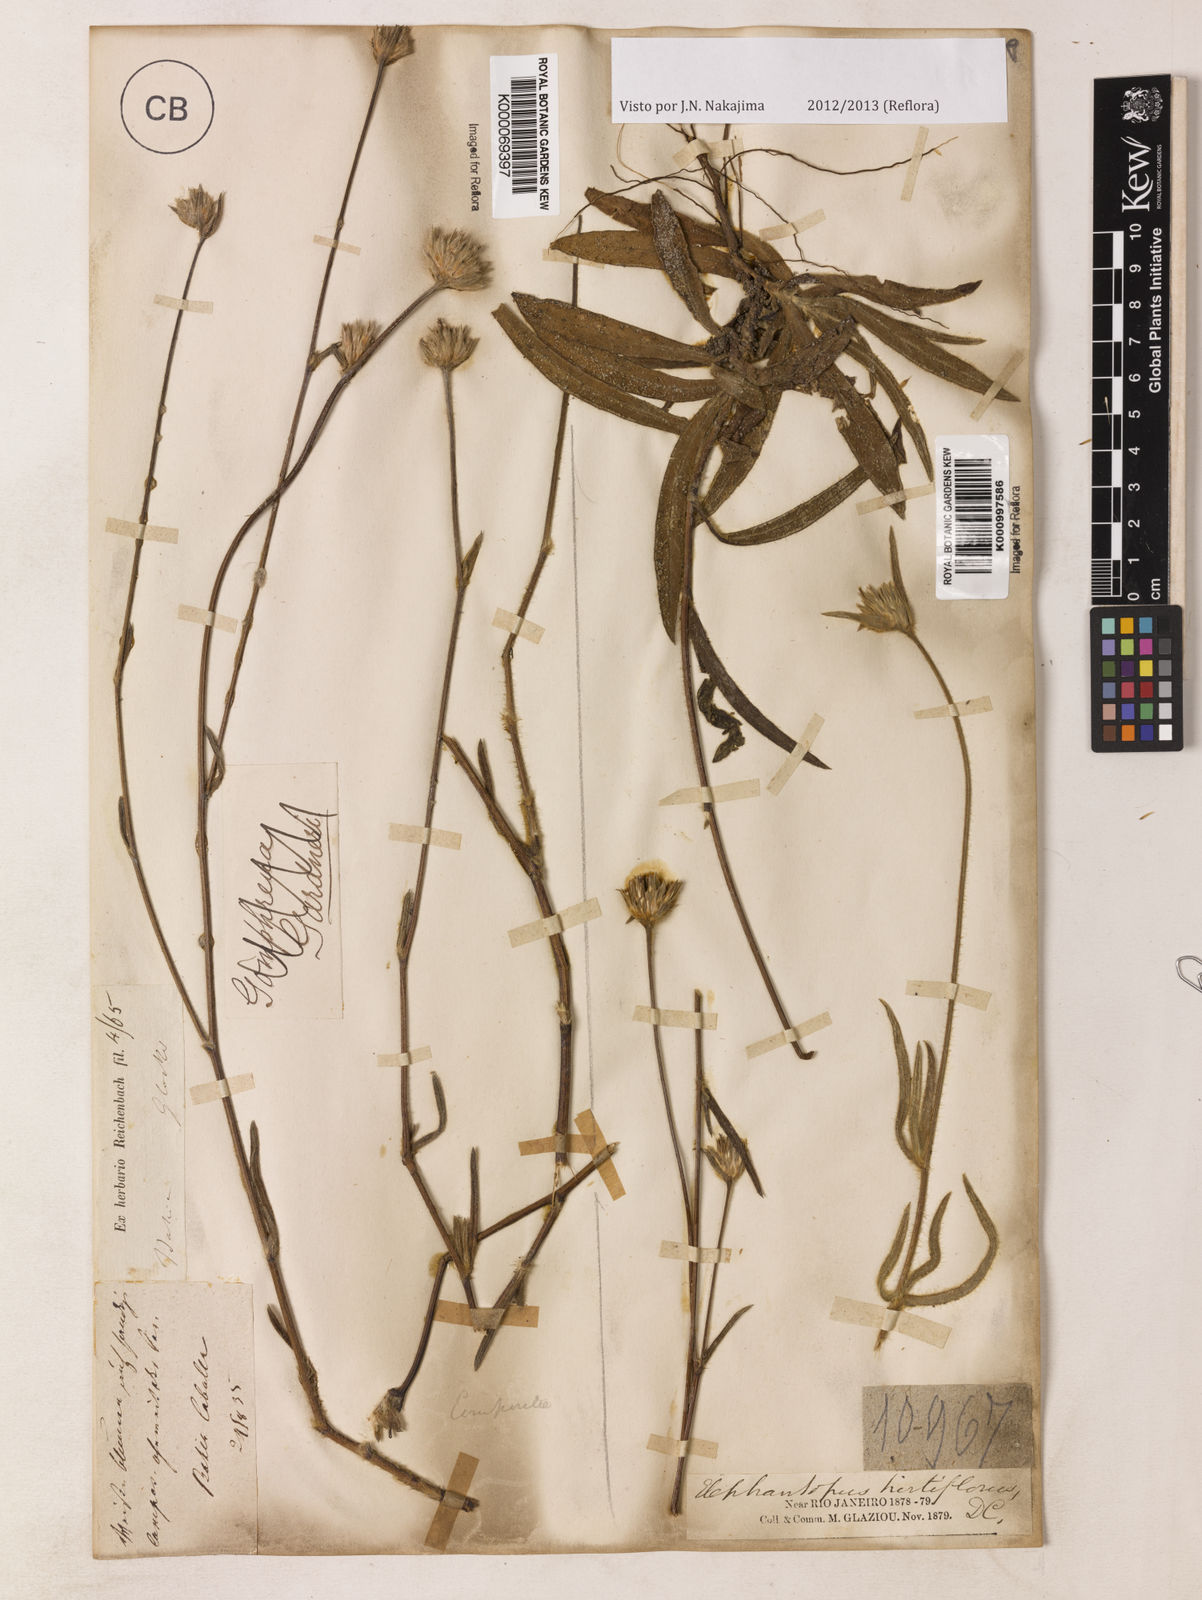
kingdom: Plantae
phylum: Tracheophyta
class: Magnoliopsida
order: Asterales
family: Asteraceae
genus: Elephantopus
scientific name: Elephantopus hirtiflorus
